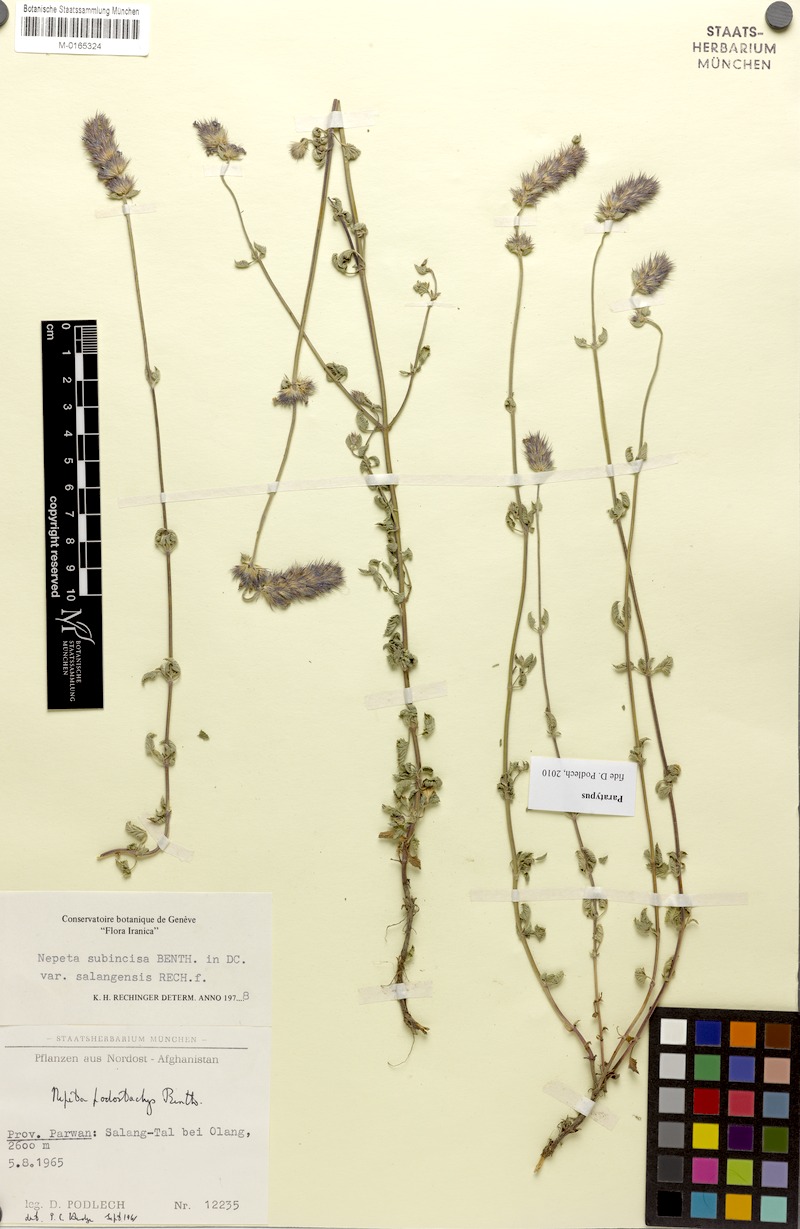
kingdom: Plantae
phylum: Tracheophyta
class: Magnoliopsida
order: Lamiales
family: Lamiaceae
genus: Nepeta
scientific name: Nepeta subincisa
